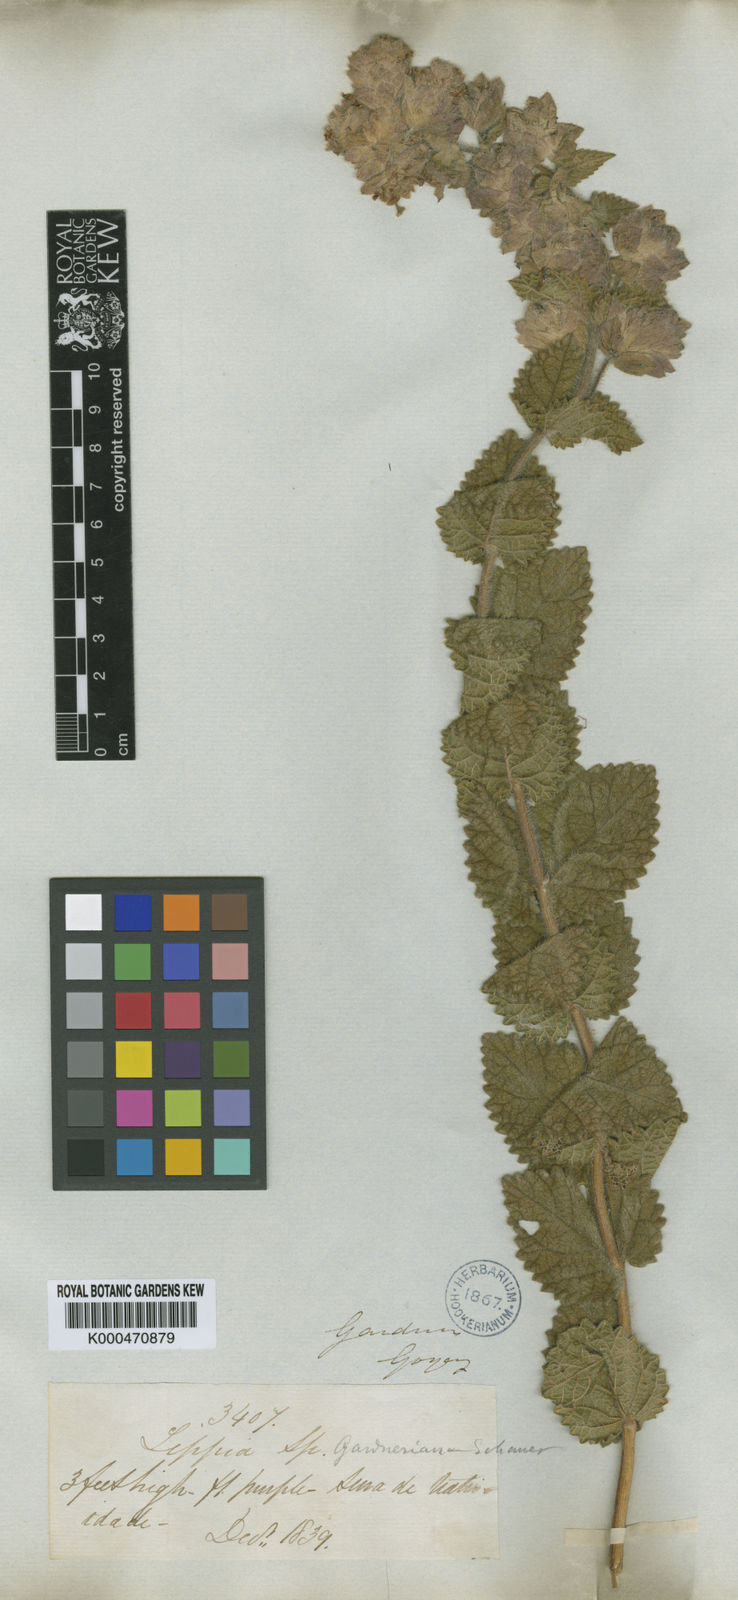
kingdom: Plantae
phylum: Tracheophyta
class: Magnoliopsida
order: Lamiales
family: Verbenaceae
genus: Lippia
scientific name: Lippia gardneriana
